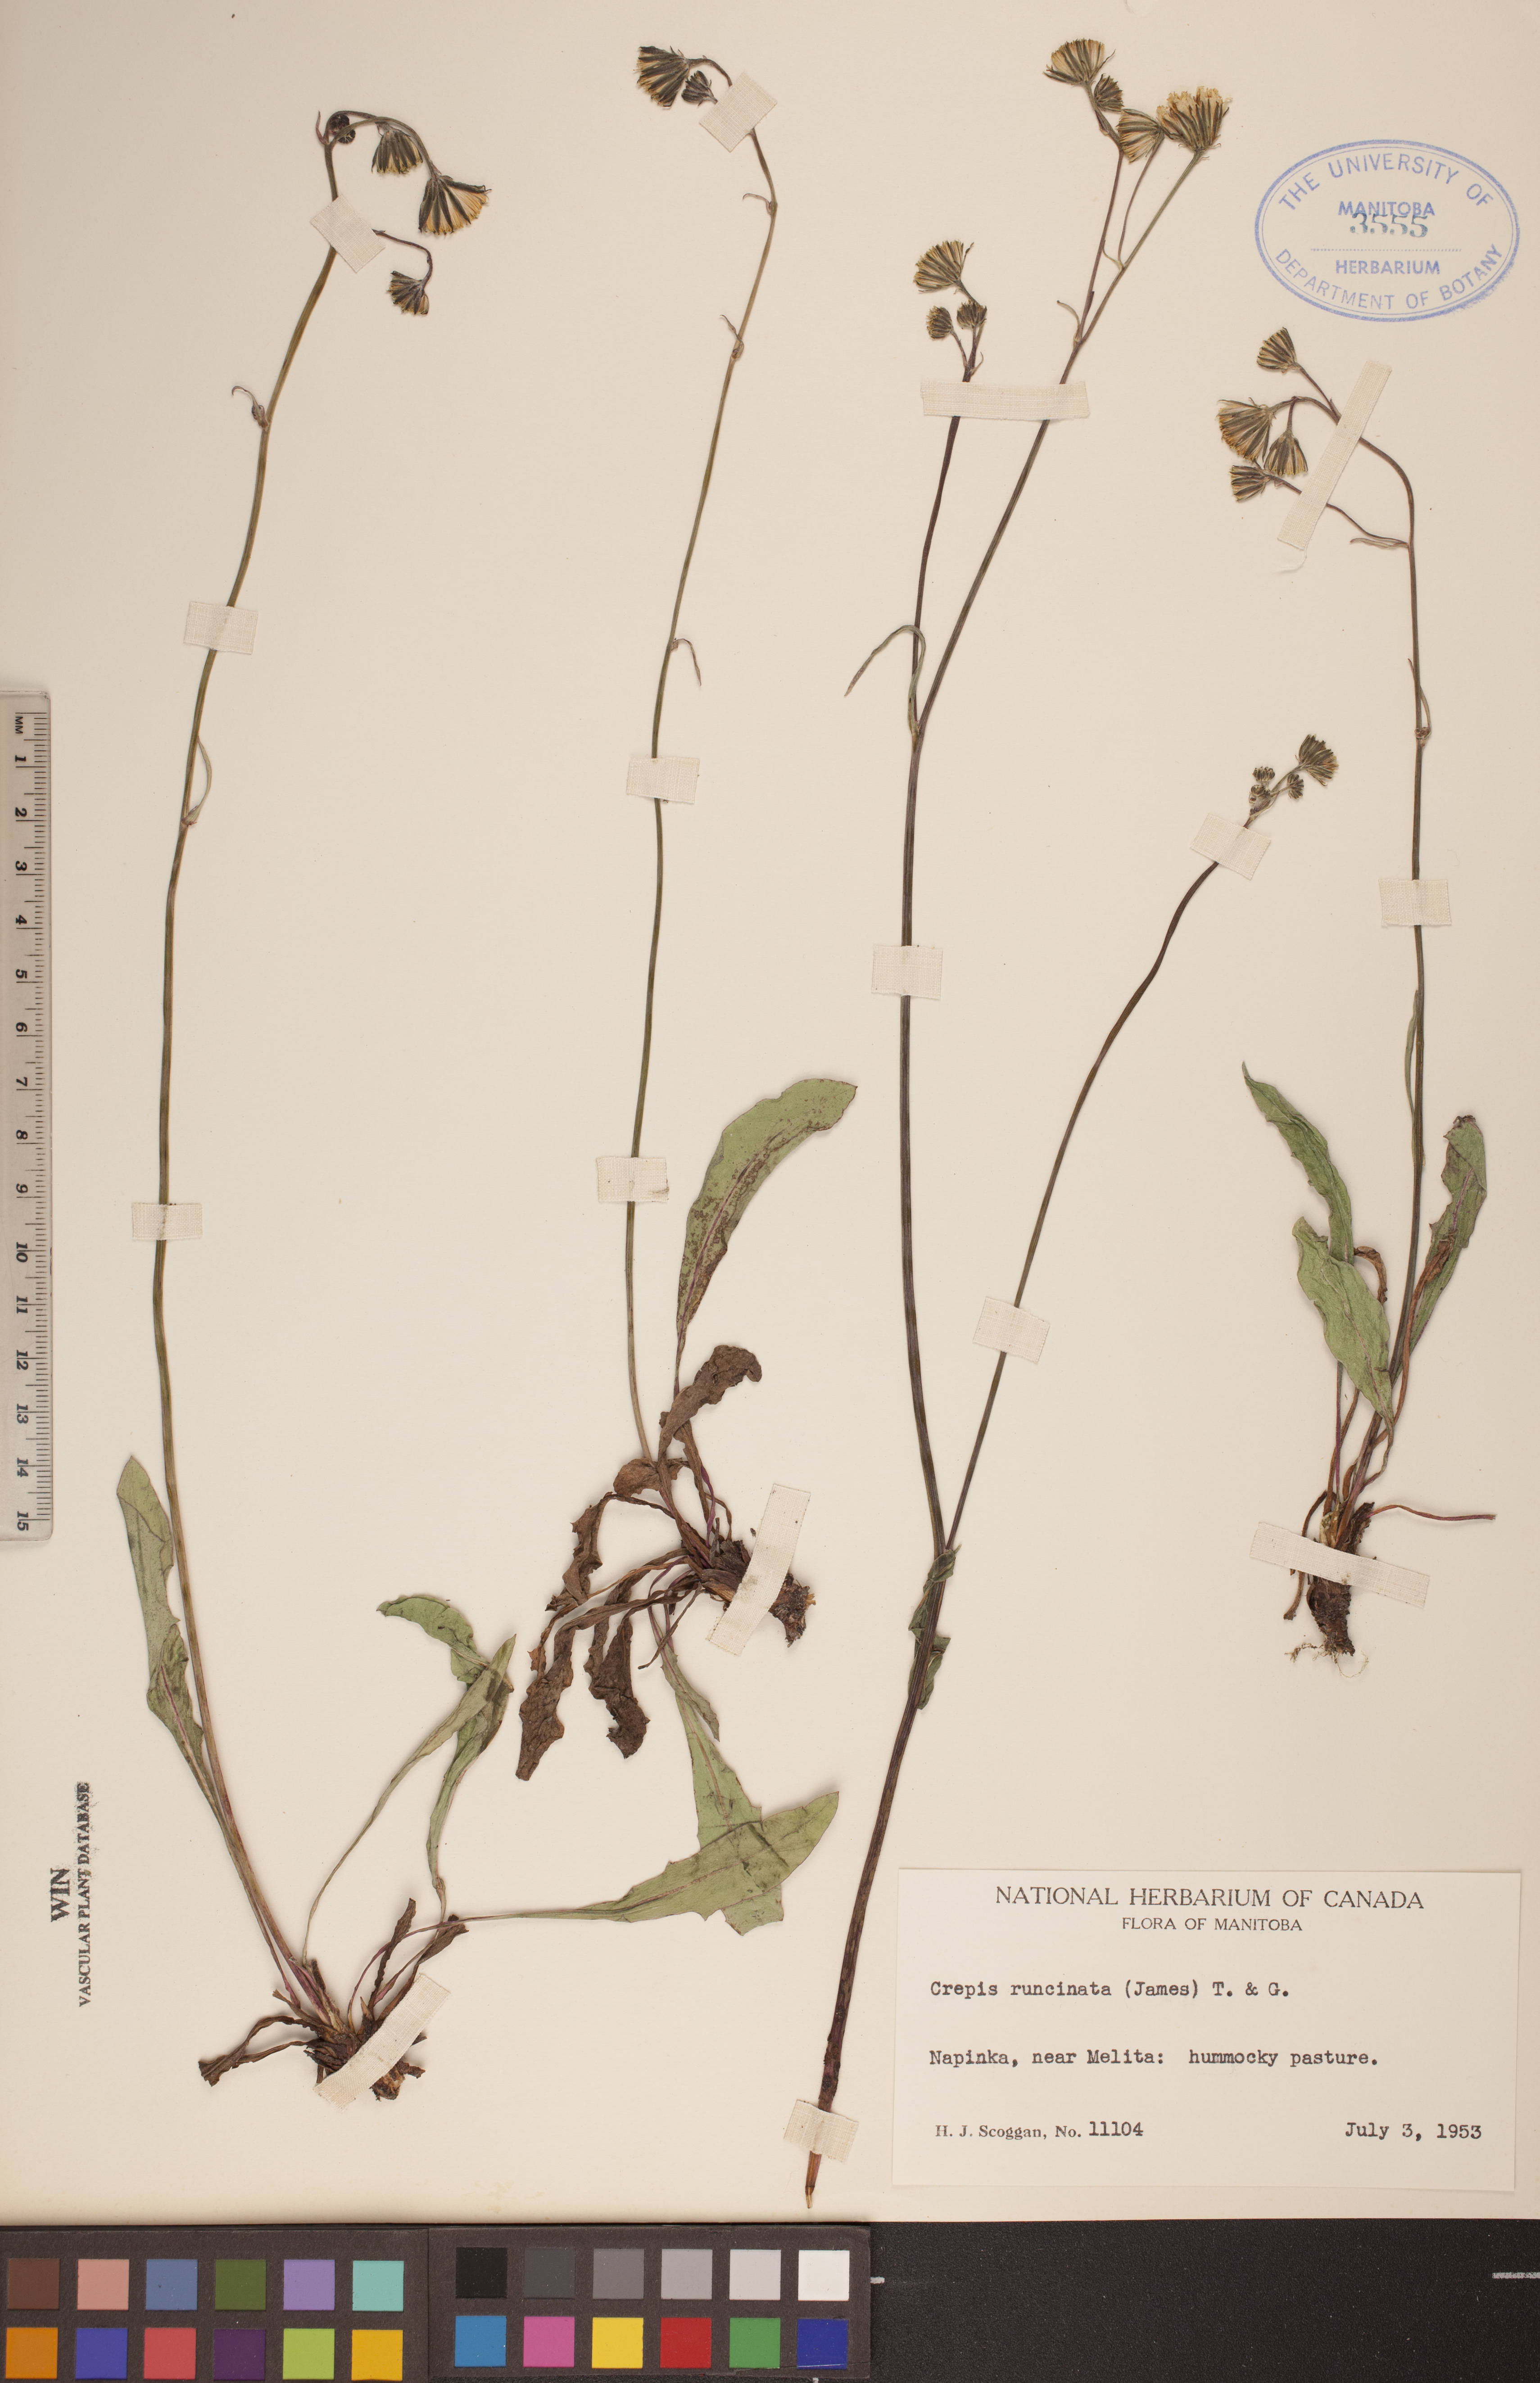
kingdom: Plantae
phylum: Tracheophyta
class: Magnoliopsida
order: Asterales
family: Asteraceae
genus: Crepis
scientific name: Crepis runcinata
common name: Dandelion hawksbeard
